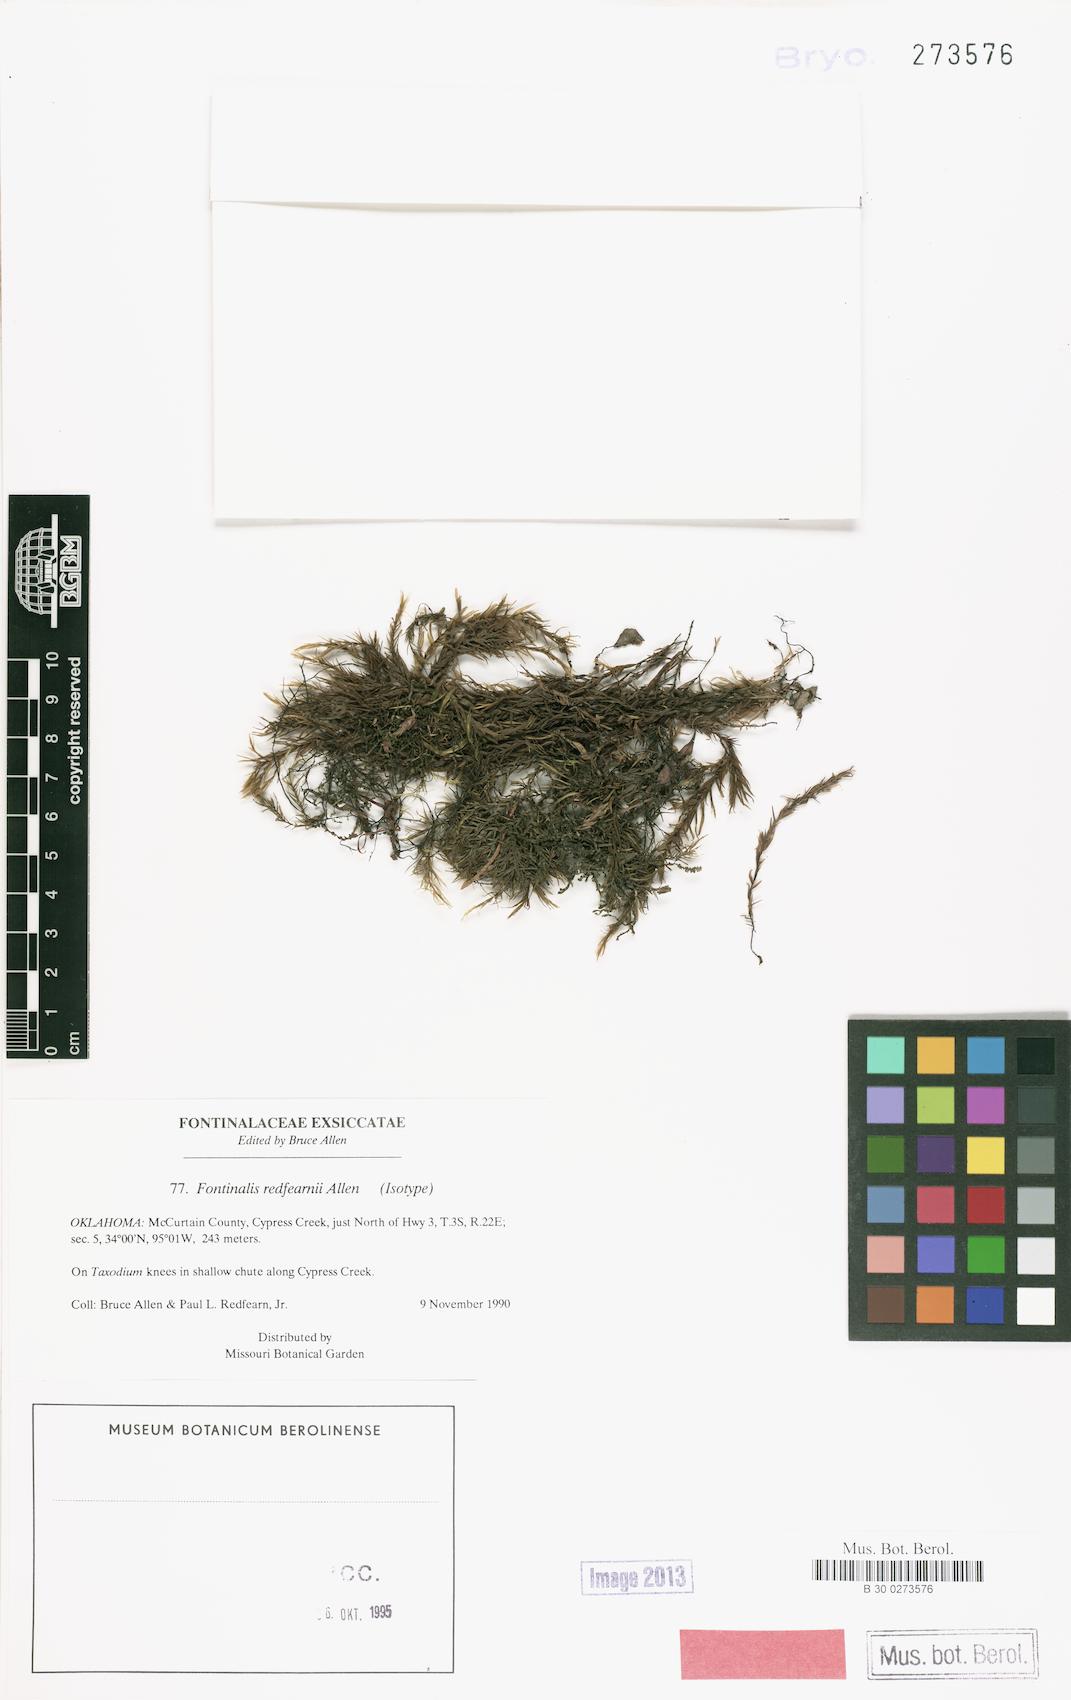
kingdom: Plantae
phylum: Bryophyta
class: Bryopsida
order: Hypnales
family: Fontinalaceae
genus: Fontinalis
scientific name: Fontinalis redfearnii
